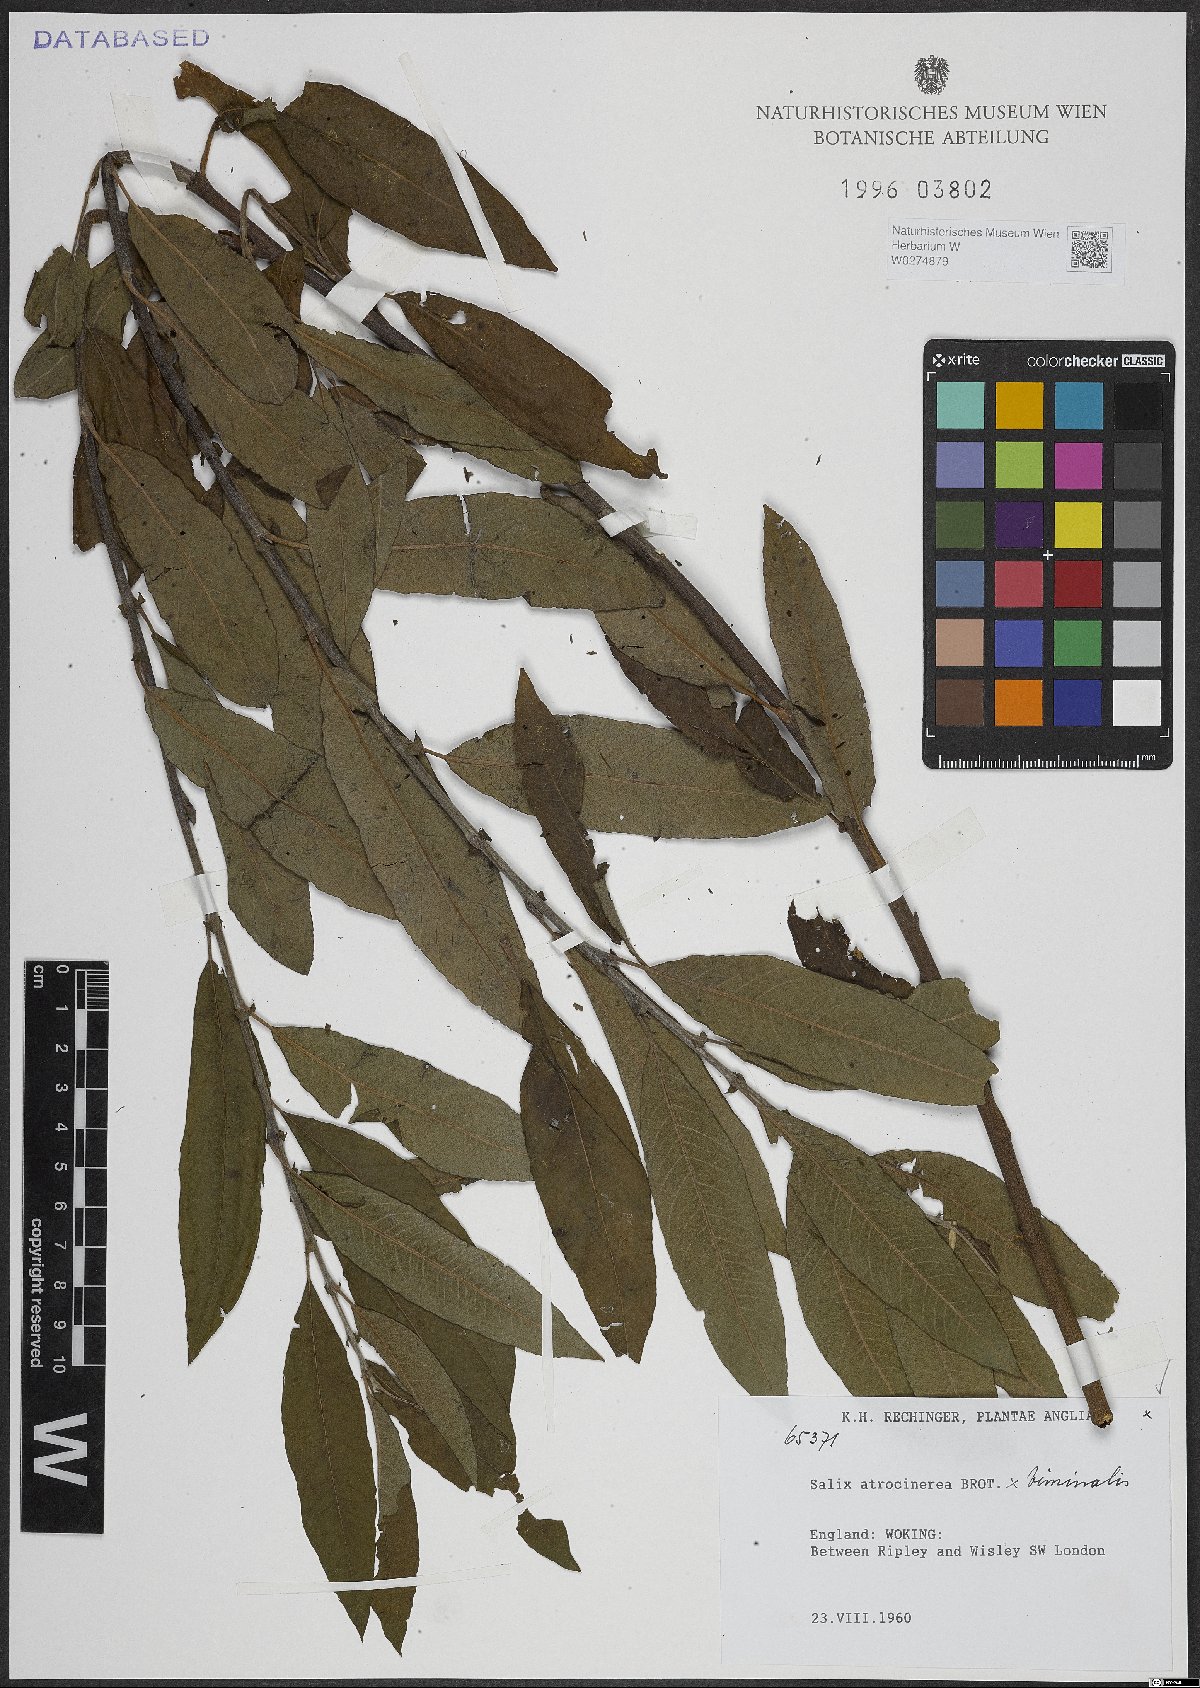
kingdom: Plantae
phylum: Tracheophyta
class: Magnoliopsida
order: Malpighiales
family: Salicaceae
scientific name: Salicaceae
